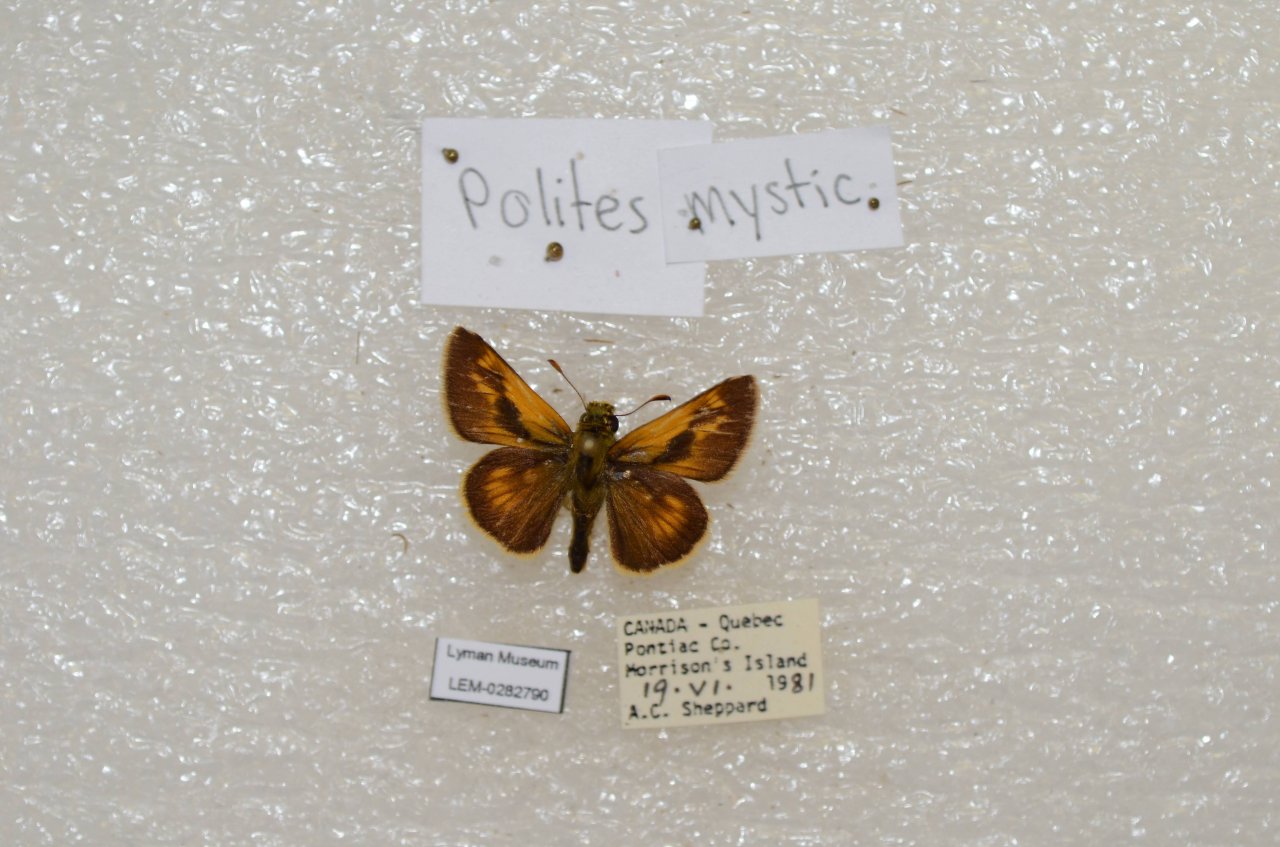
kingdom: Animalia
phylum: Arthropoda
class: Insecta
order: Lepidoptera
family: Hesperiidae
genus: Polites
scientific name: Polites
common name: Long Dash Skipper
